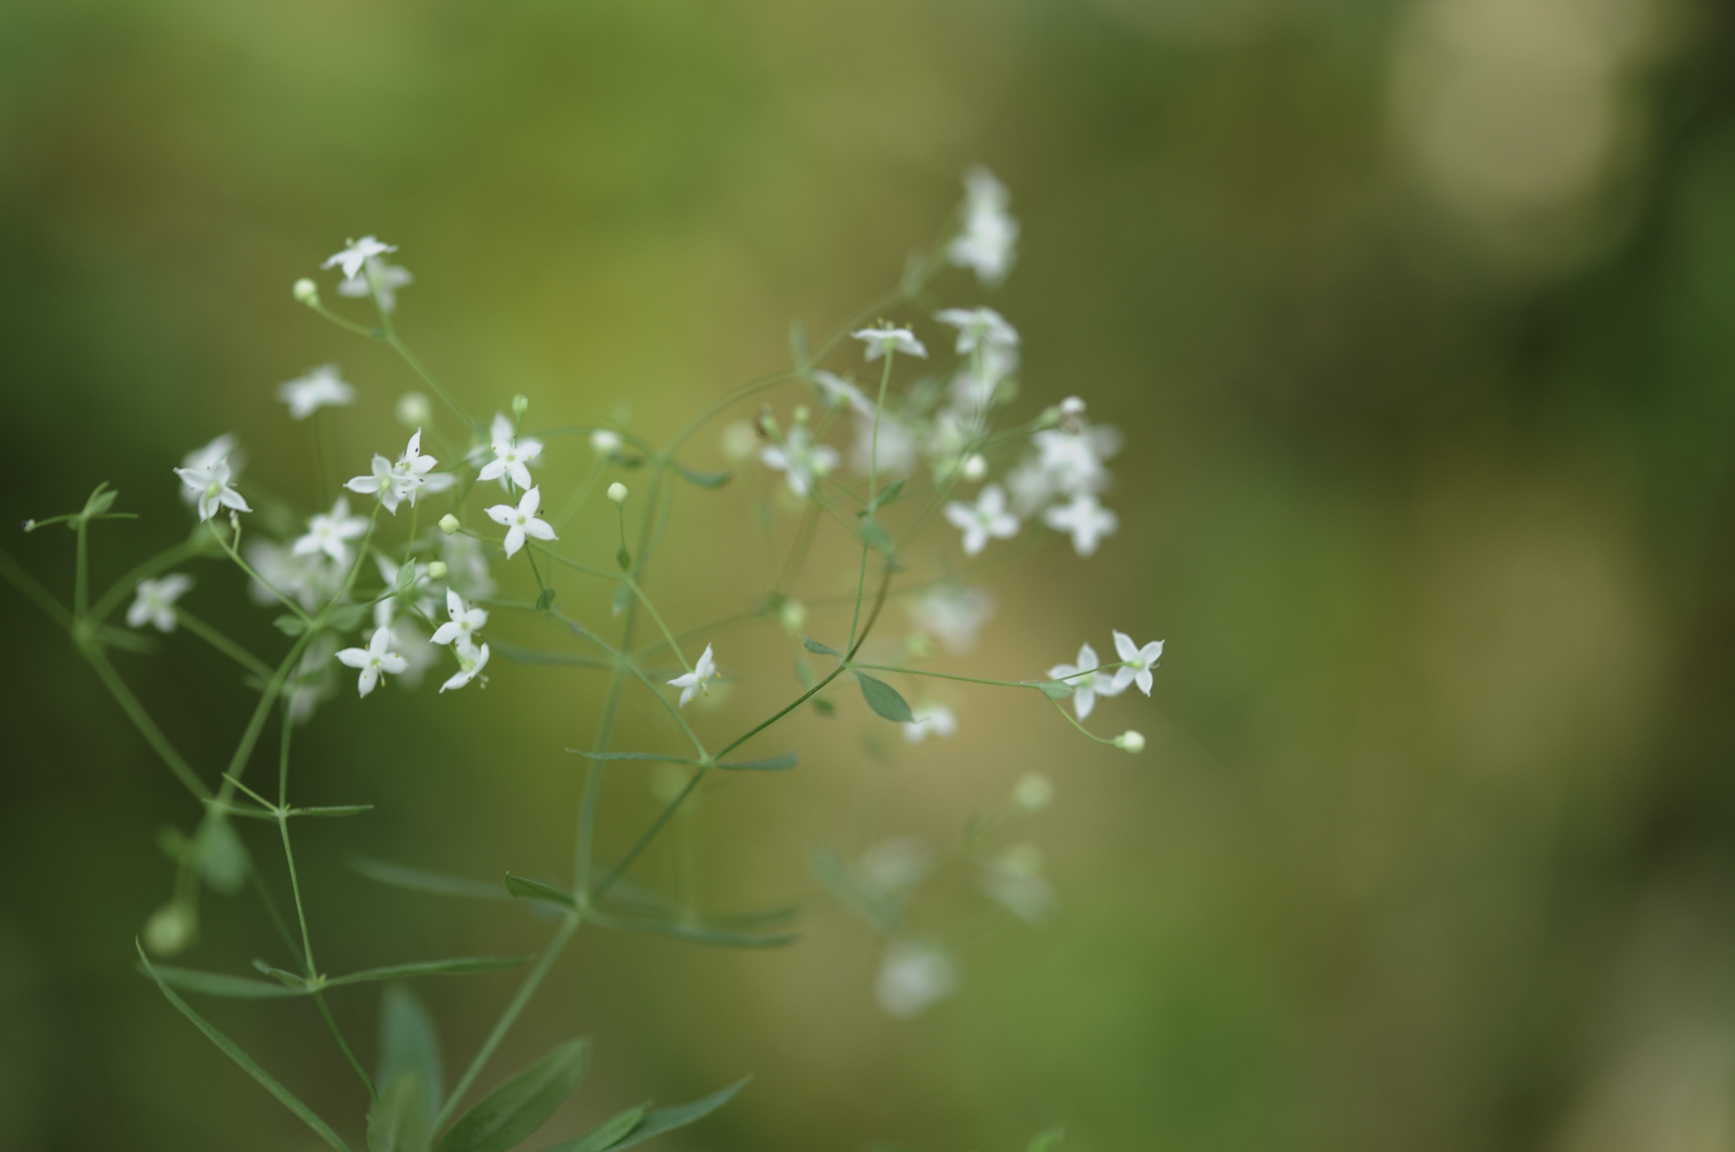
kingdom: Plantae
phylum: Tracheophyta
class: Magnoliopsida
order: Gentianales
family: Rubiaceae
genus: Galium
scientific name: Galium intermedium
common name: Bedstraw
